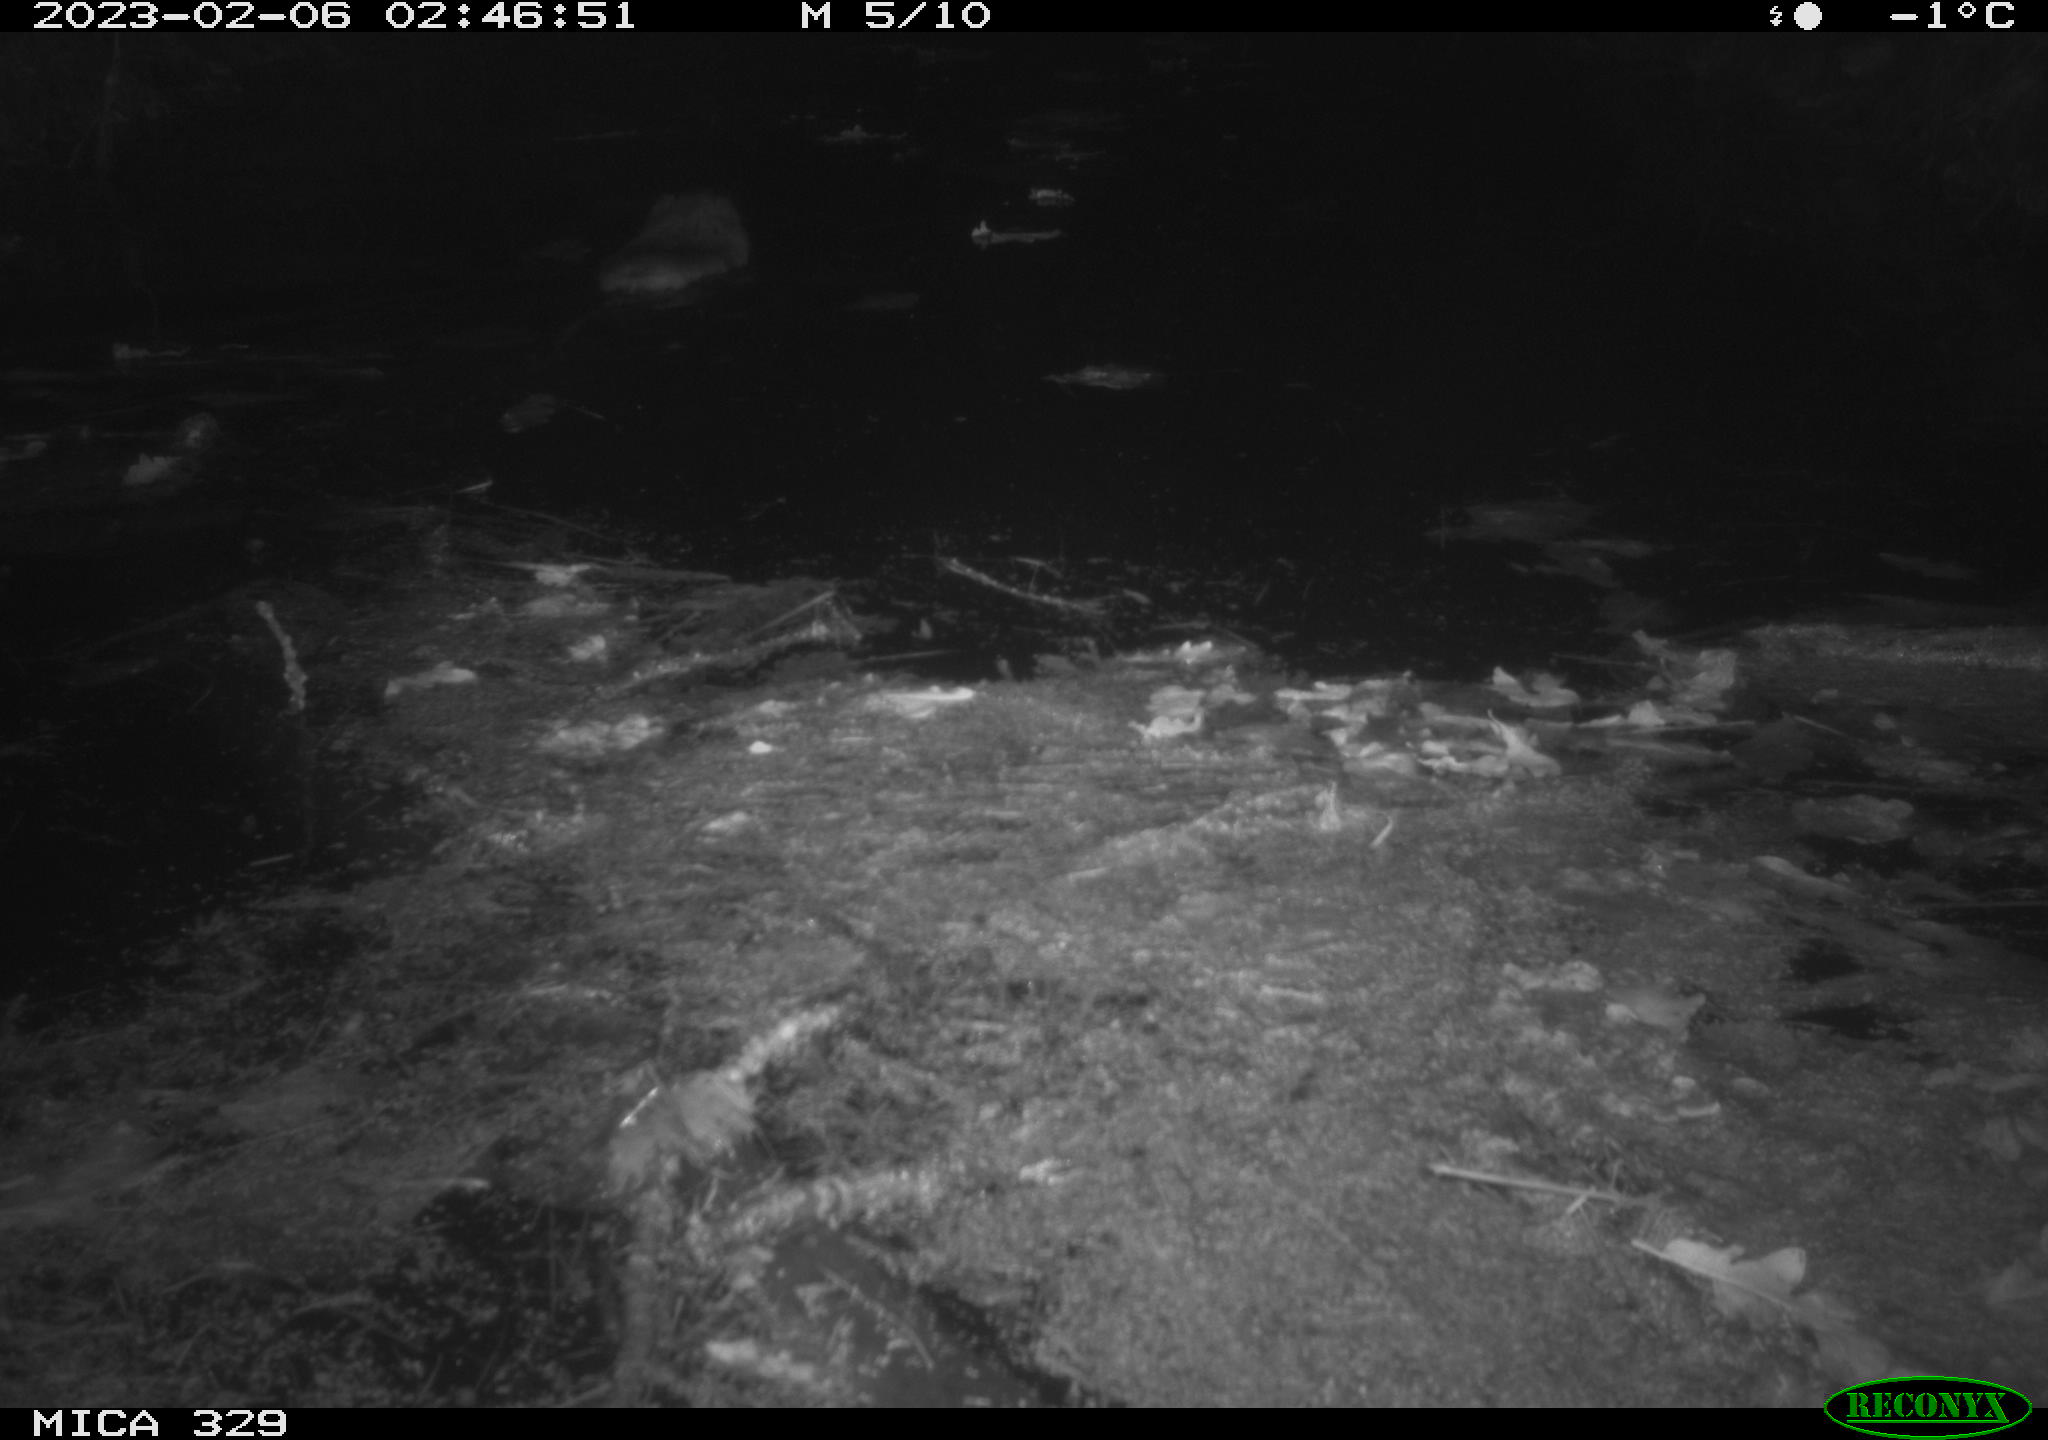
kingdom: Animalia
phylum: Chordata
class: Mammalia
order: Rodentia
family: Cricetidae
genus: Ondatra
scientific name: Ondatra zibethicus
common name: Muskrat
